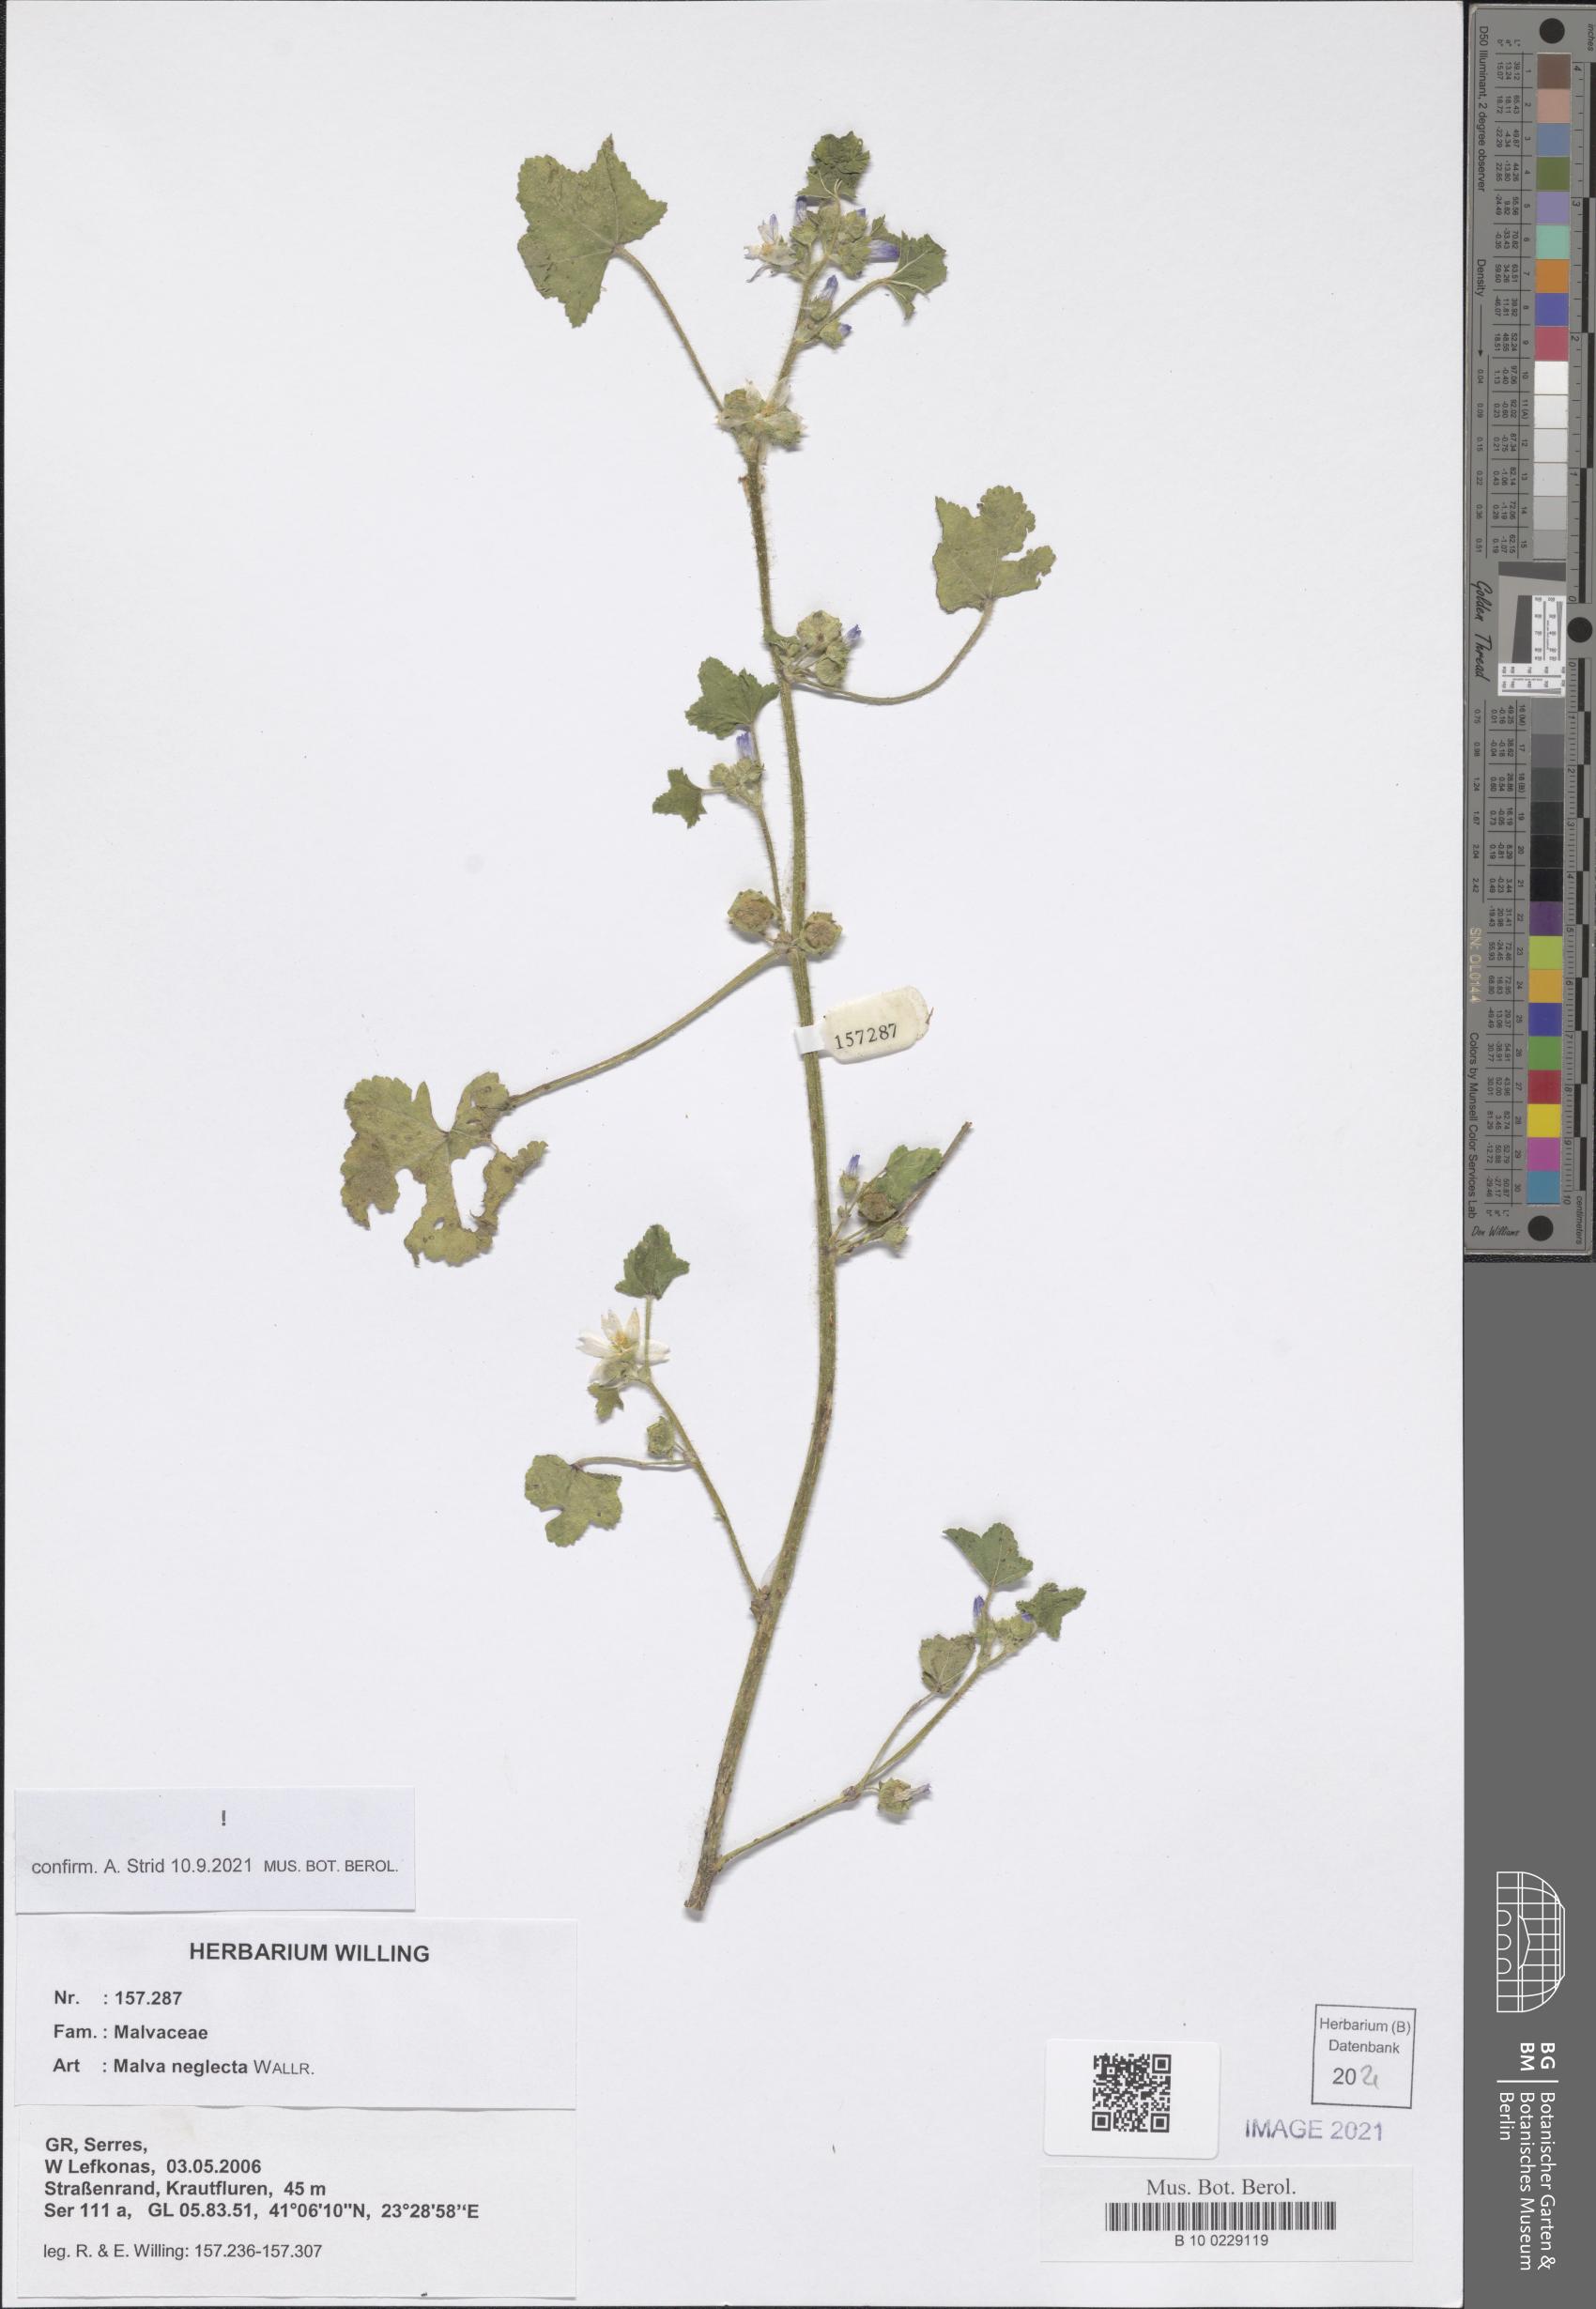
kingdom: Plantae
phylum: Tracheophyta
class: Magnoliopsida
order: Malvales
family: Malvaceae
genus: Malva
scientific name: Malva neglecta
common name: Common mallow
